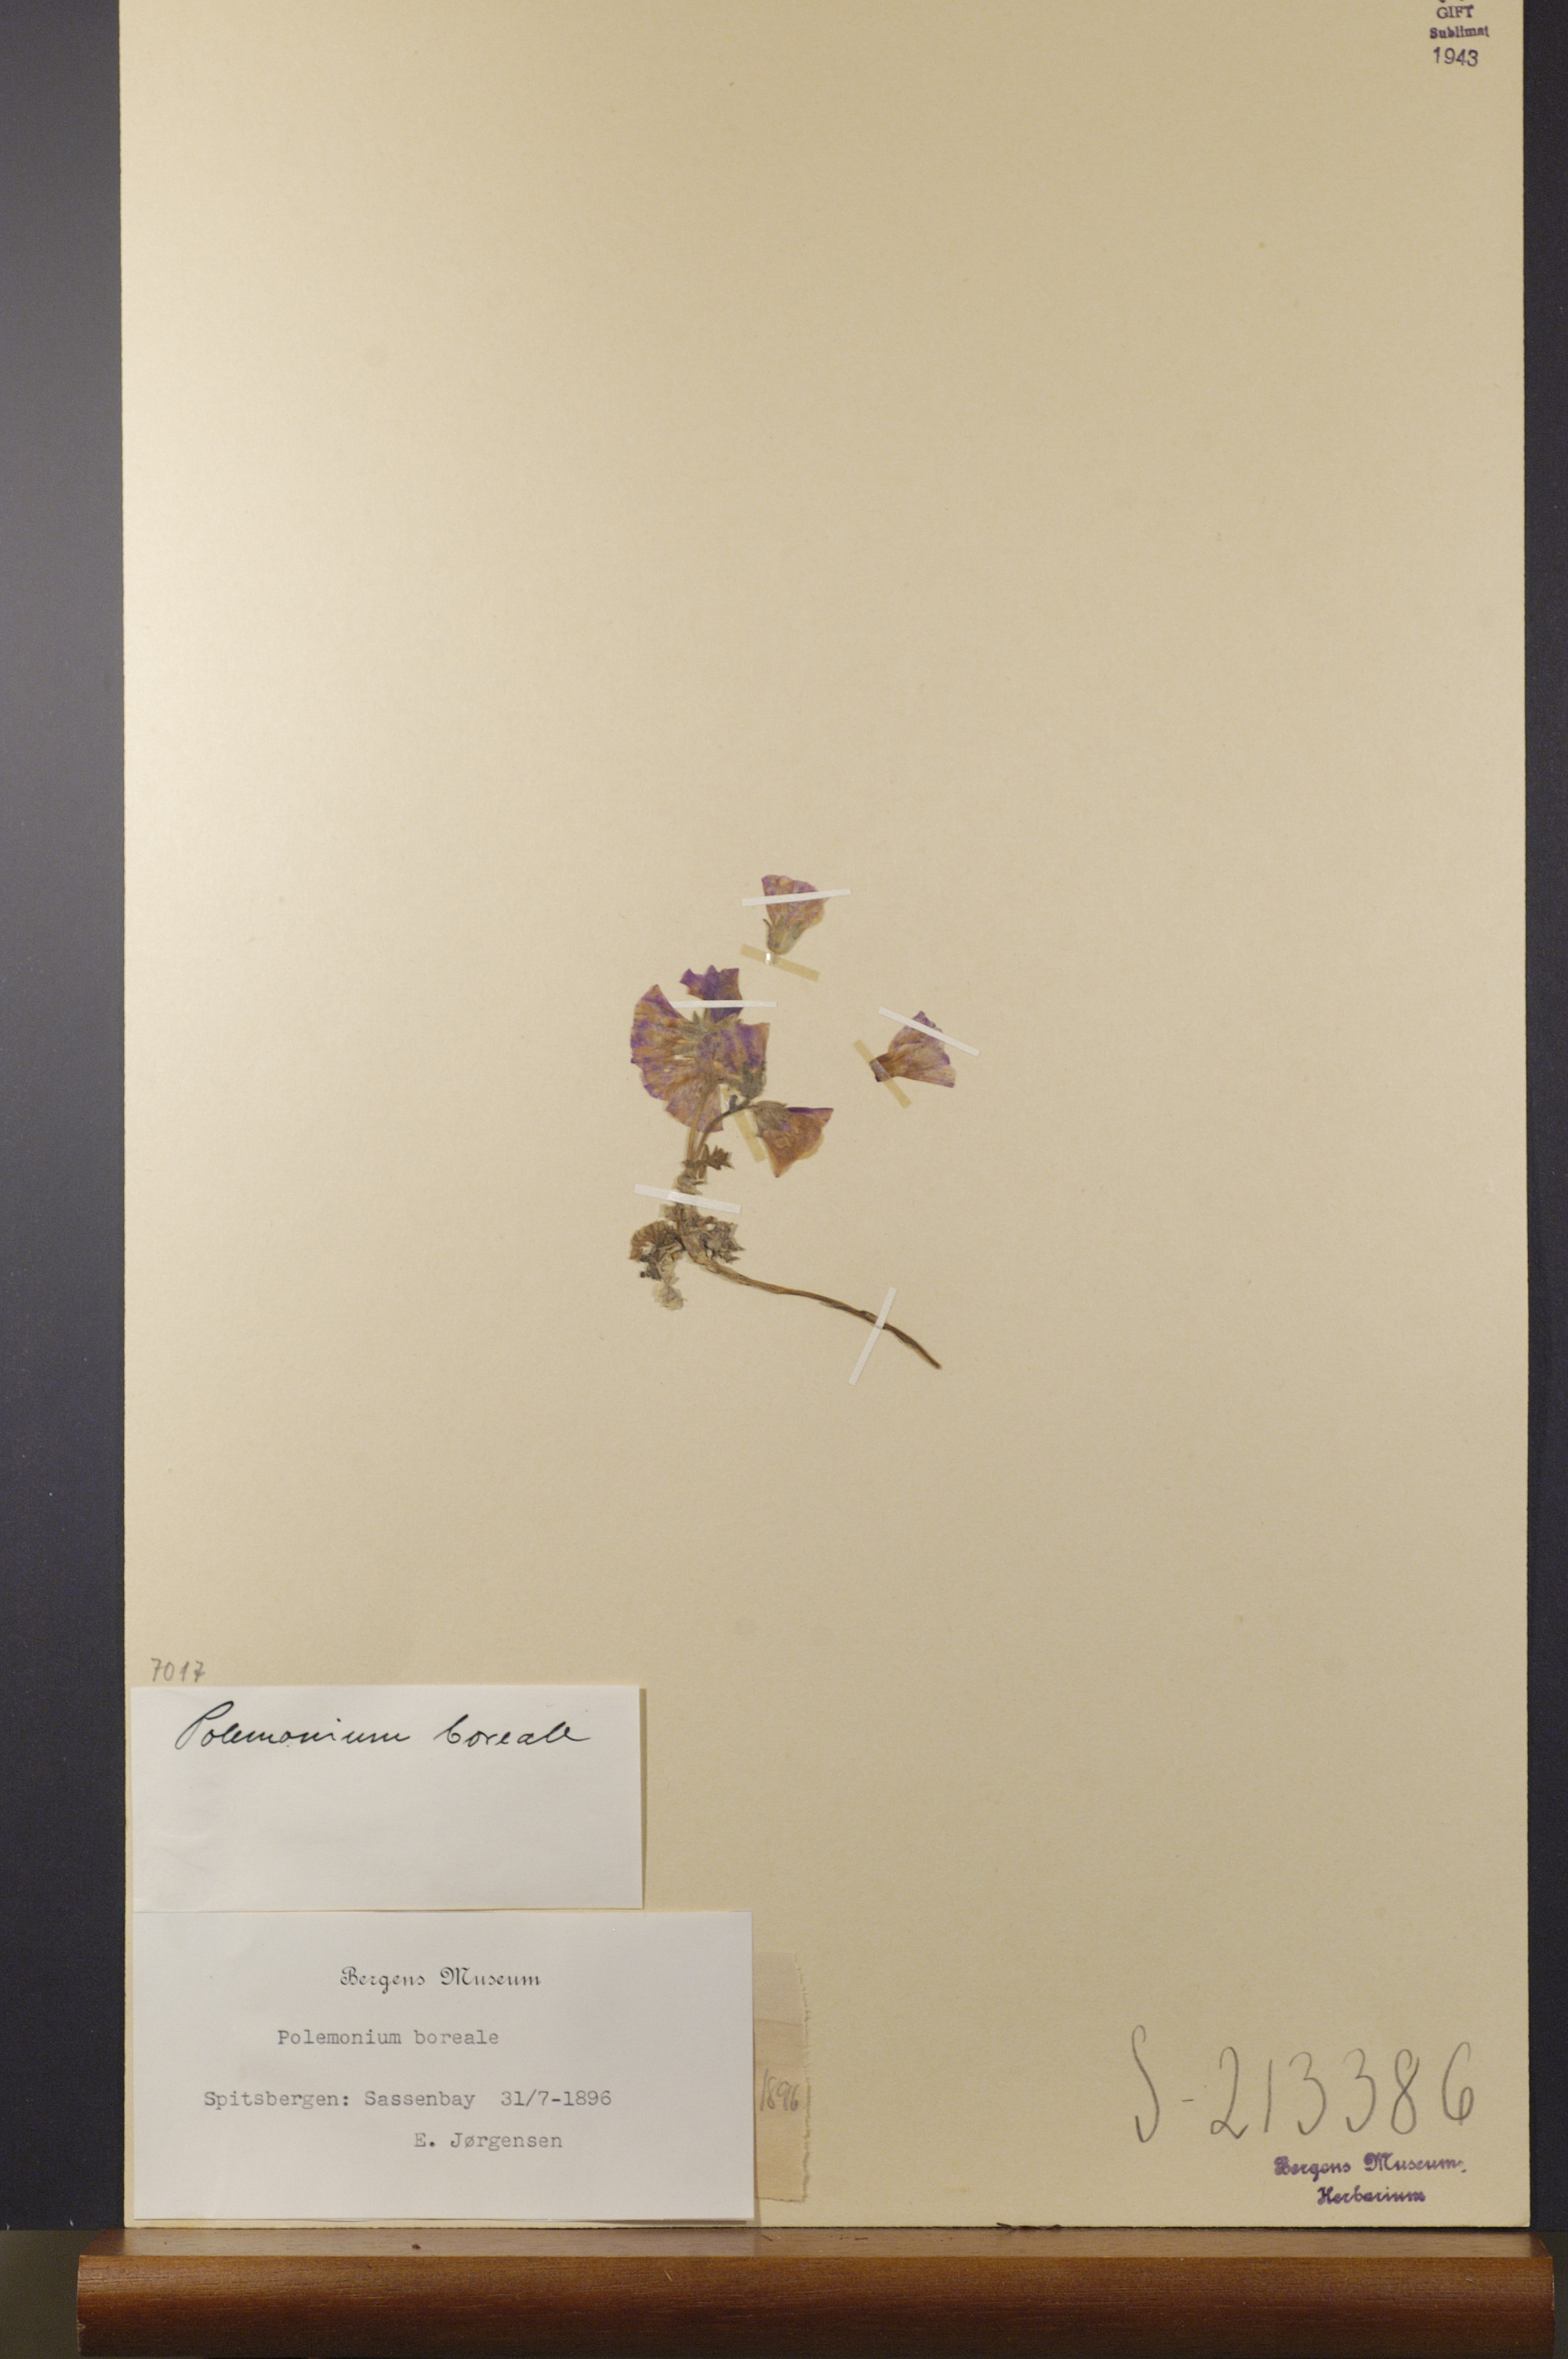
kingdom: Plantae
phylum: Tracheophyta
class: Magnoliopsida
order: Ericales
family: Polemoniaceae
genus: Polemonium
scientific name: Polemonium boreale
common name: Boreal jacob's-ladder
